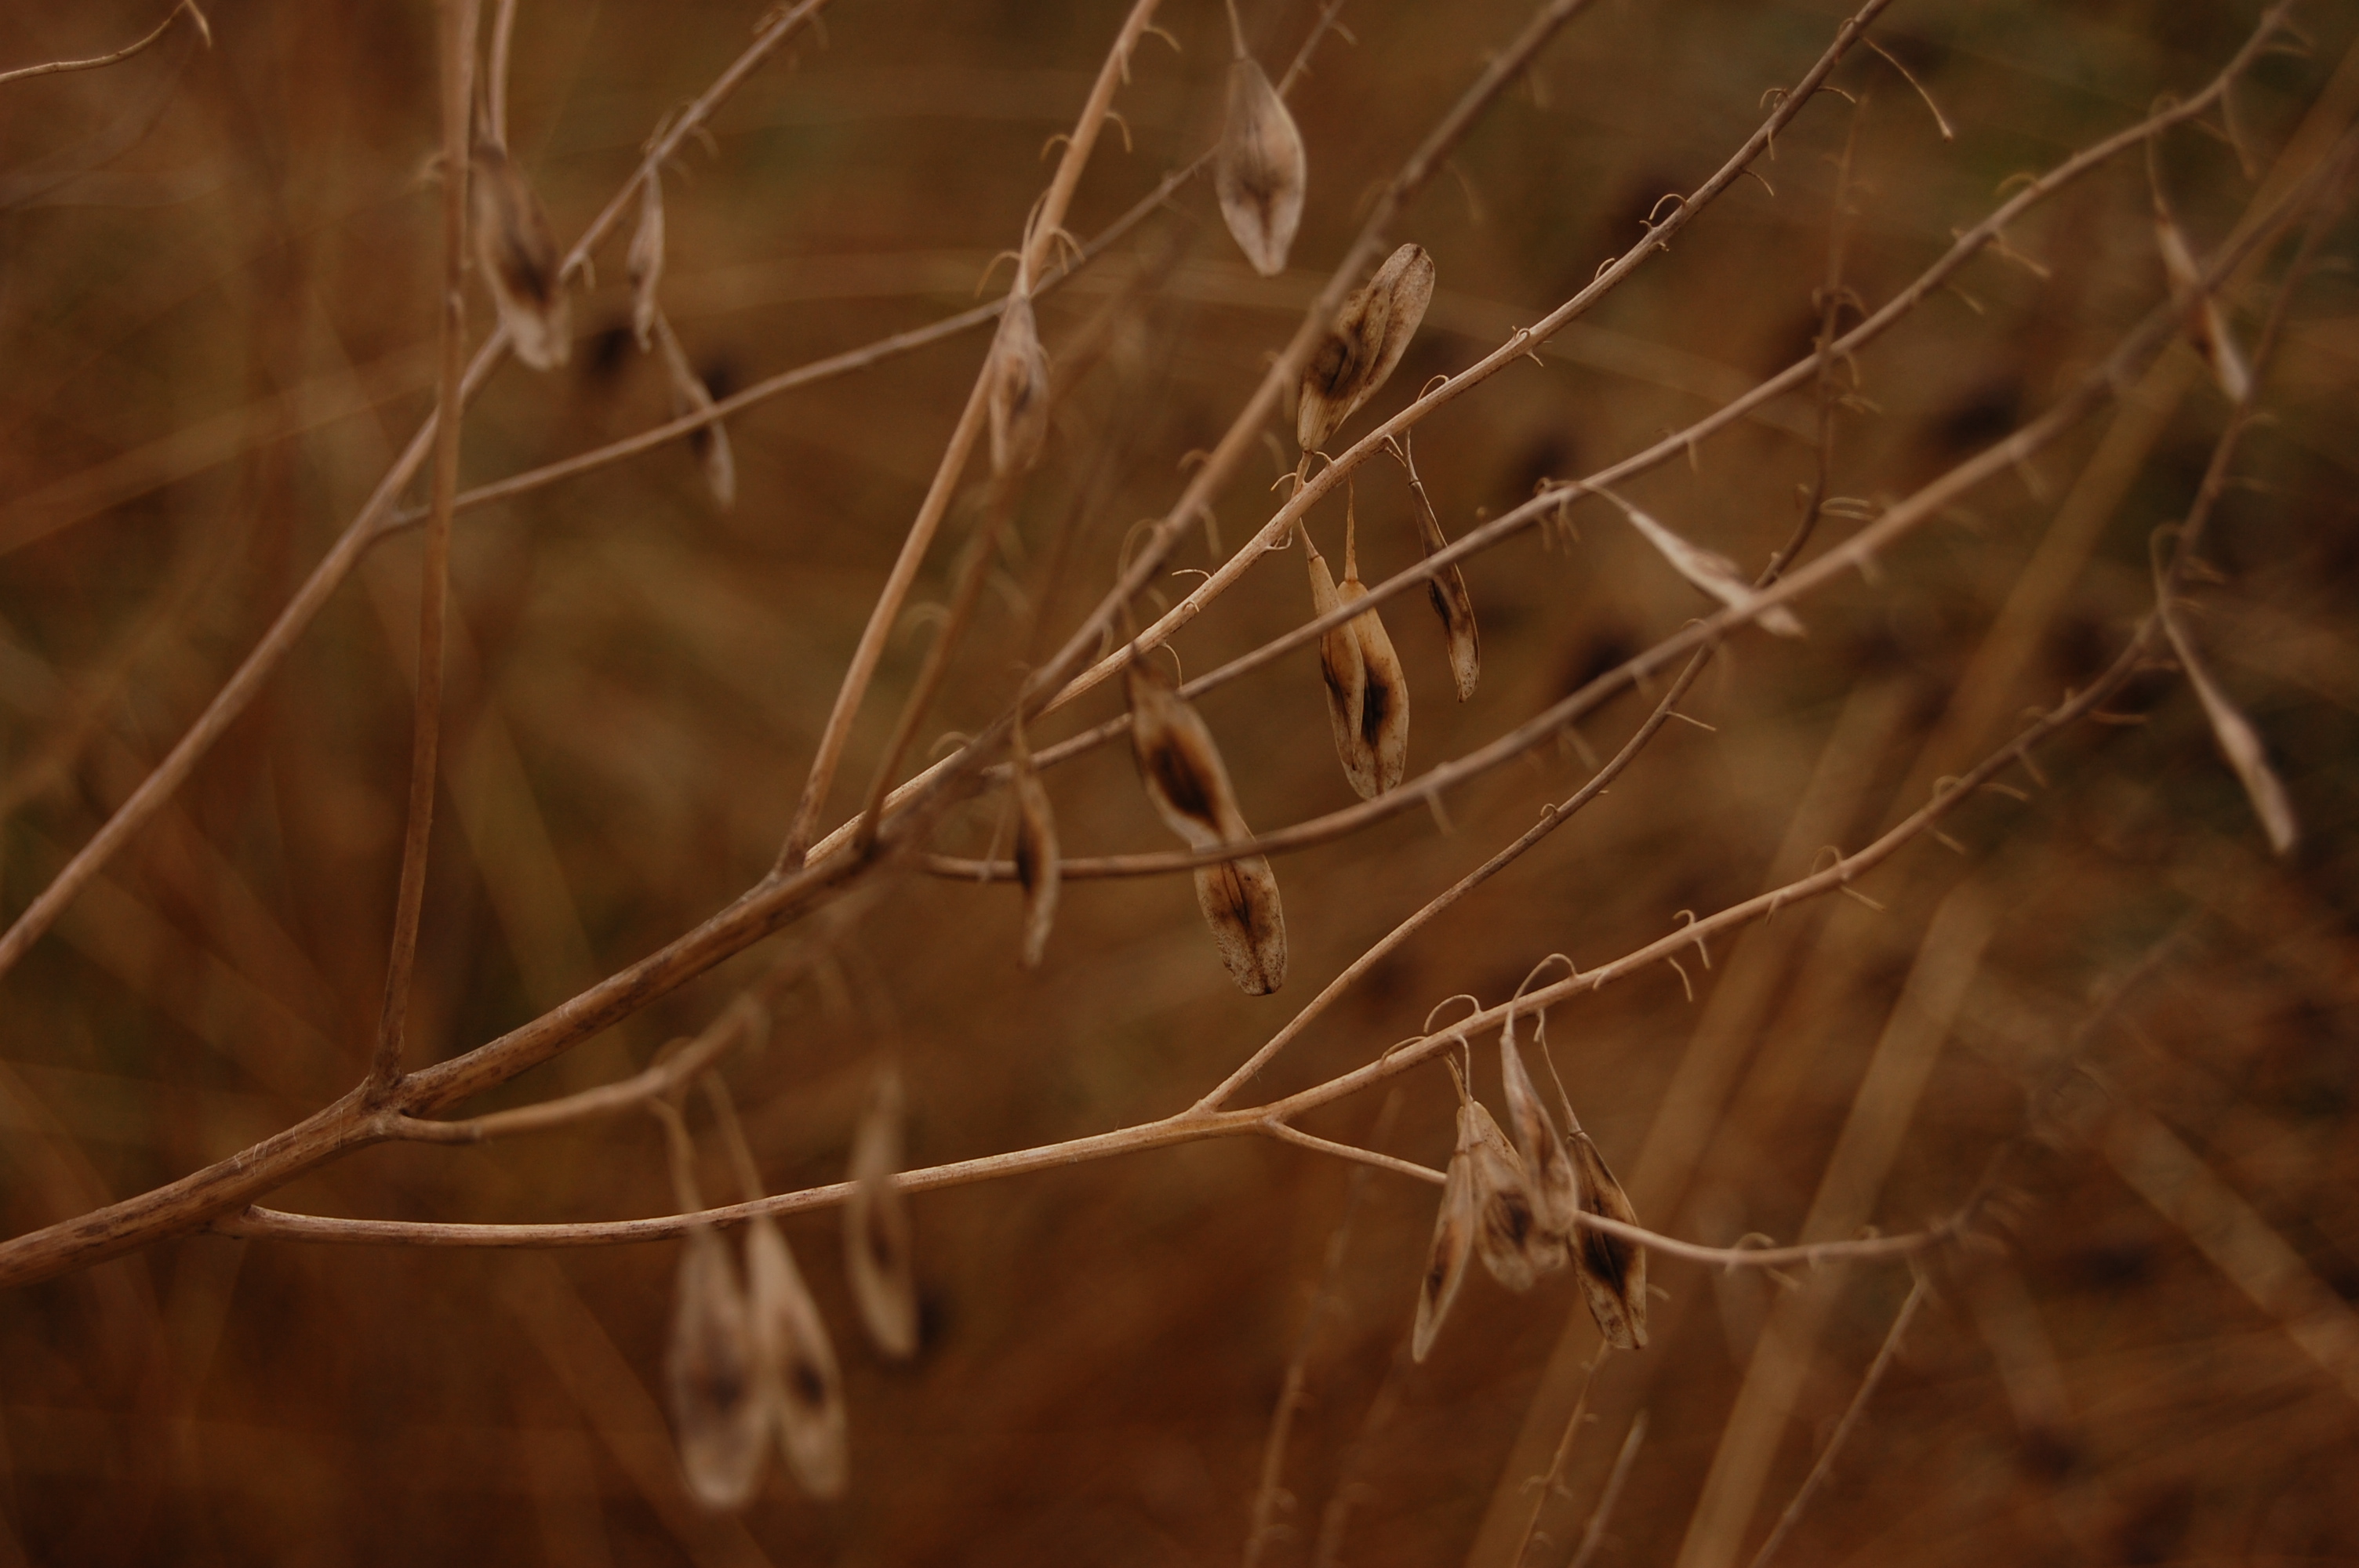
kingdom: Plantae
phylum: Tracheophyta
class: Magnoliopsida
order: Brassicales
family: Brassicaceae
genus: Isatis
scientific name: Isatis tinctoria
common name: Woad
